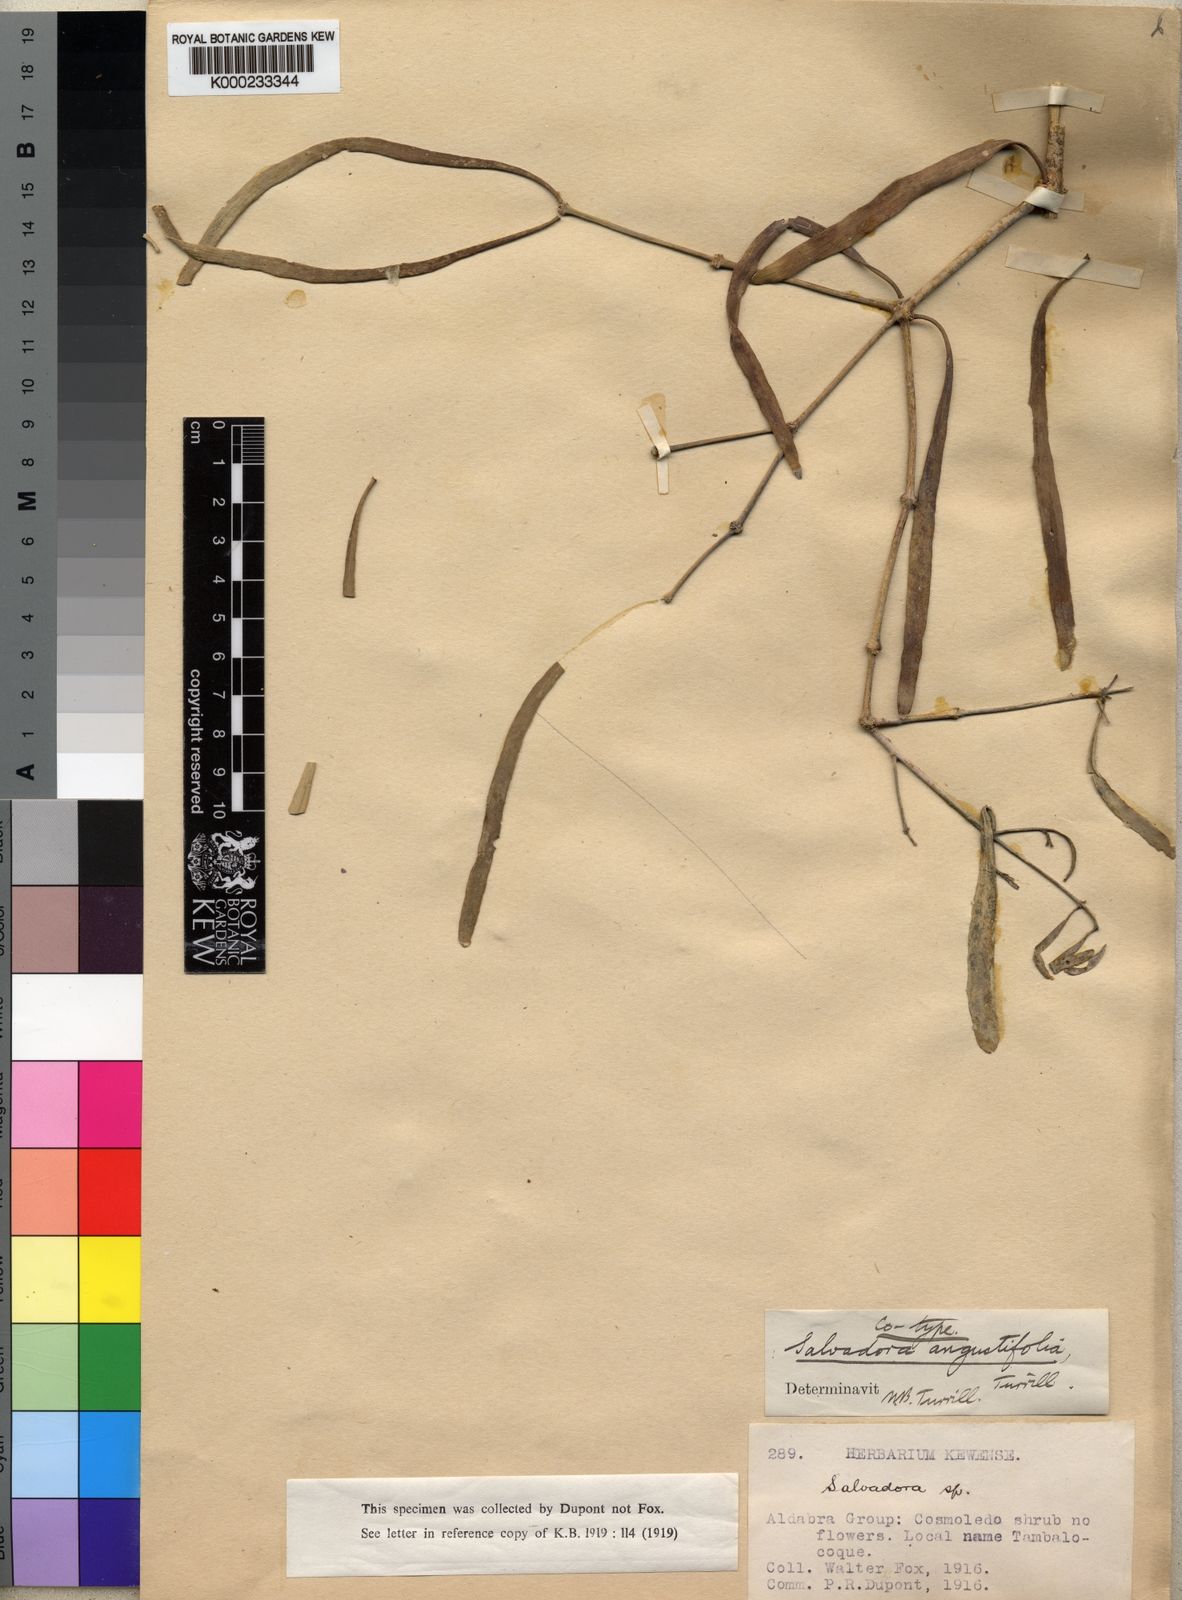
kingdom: Plantae
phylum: Tracheophyta
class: Magnoliopsida
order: Brassicales
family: Salvadoraceae
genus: Salvadora
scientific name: Salvadora angustifolia
